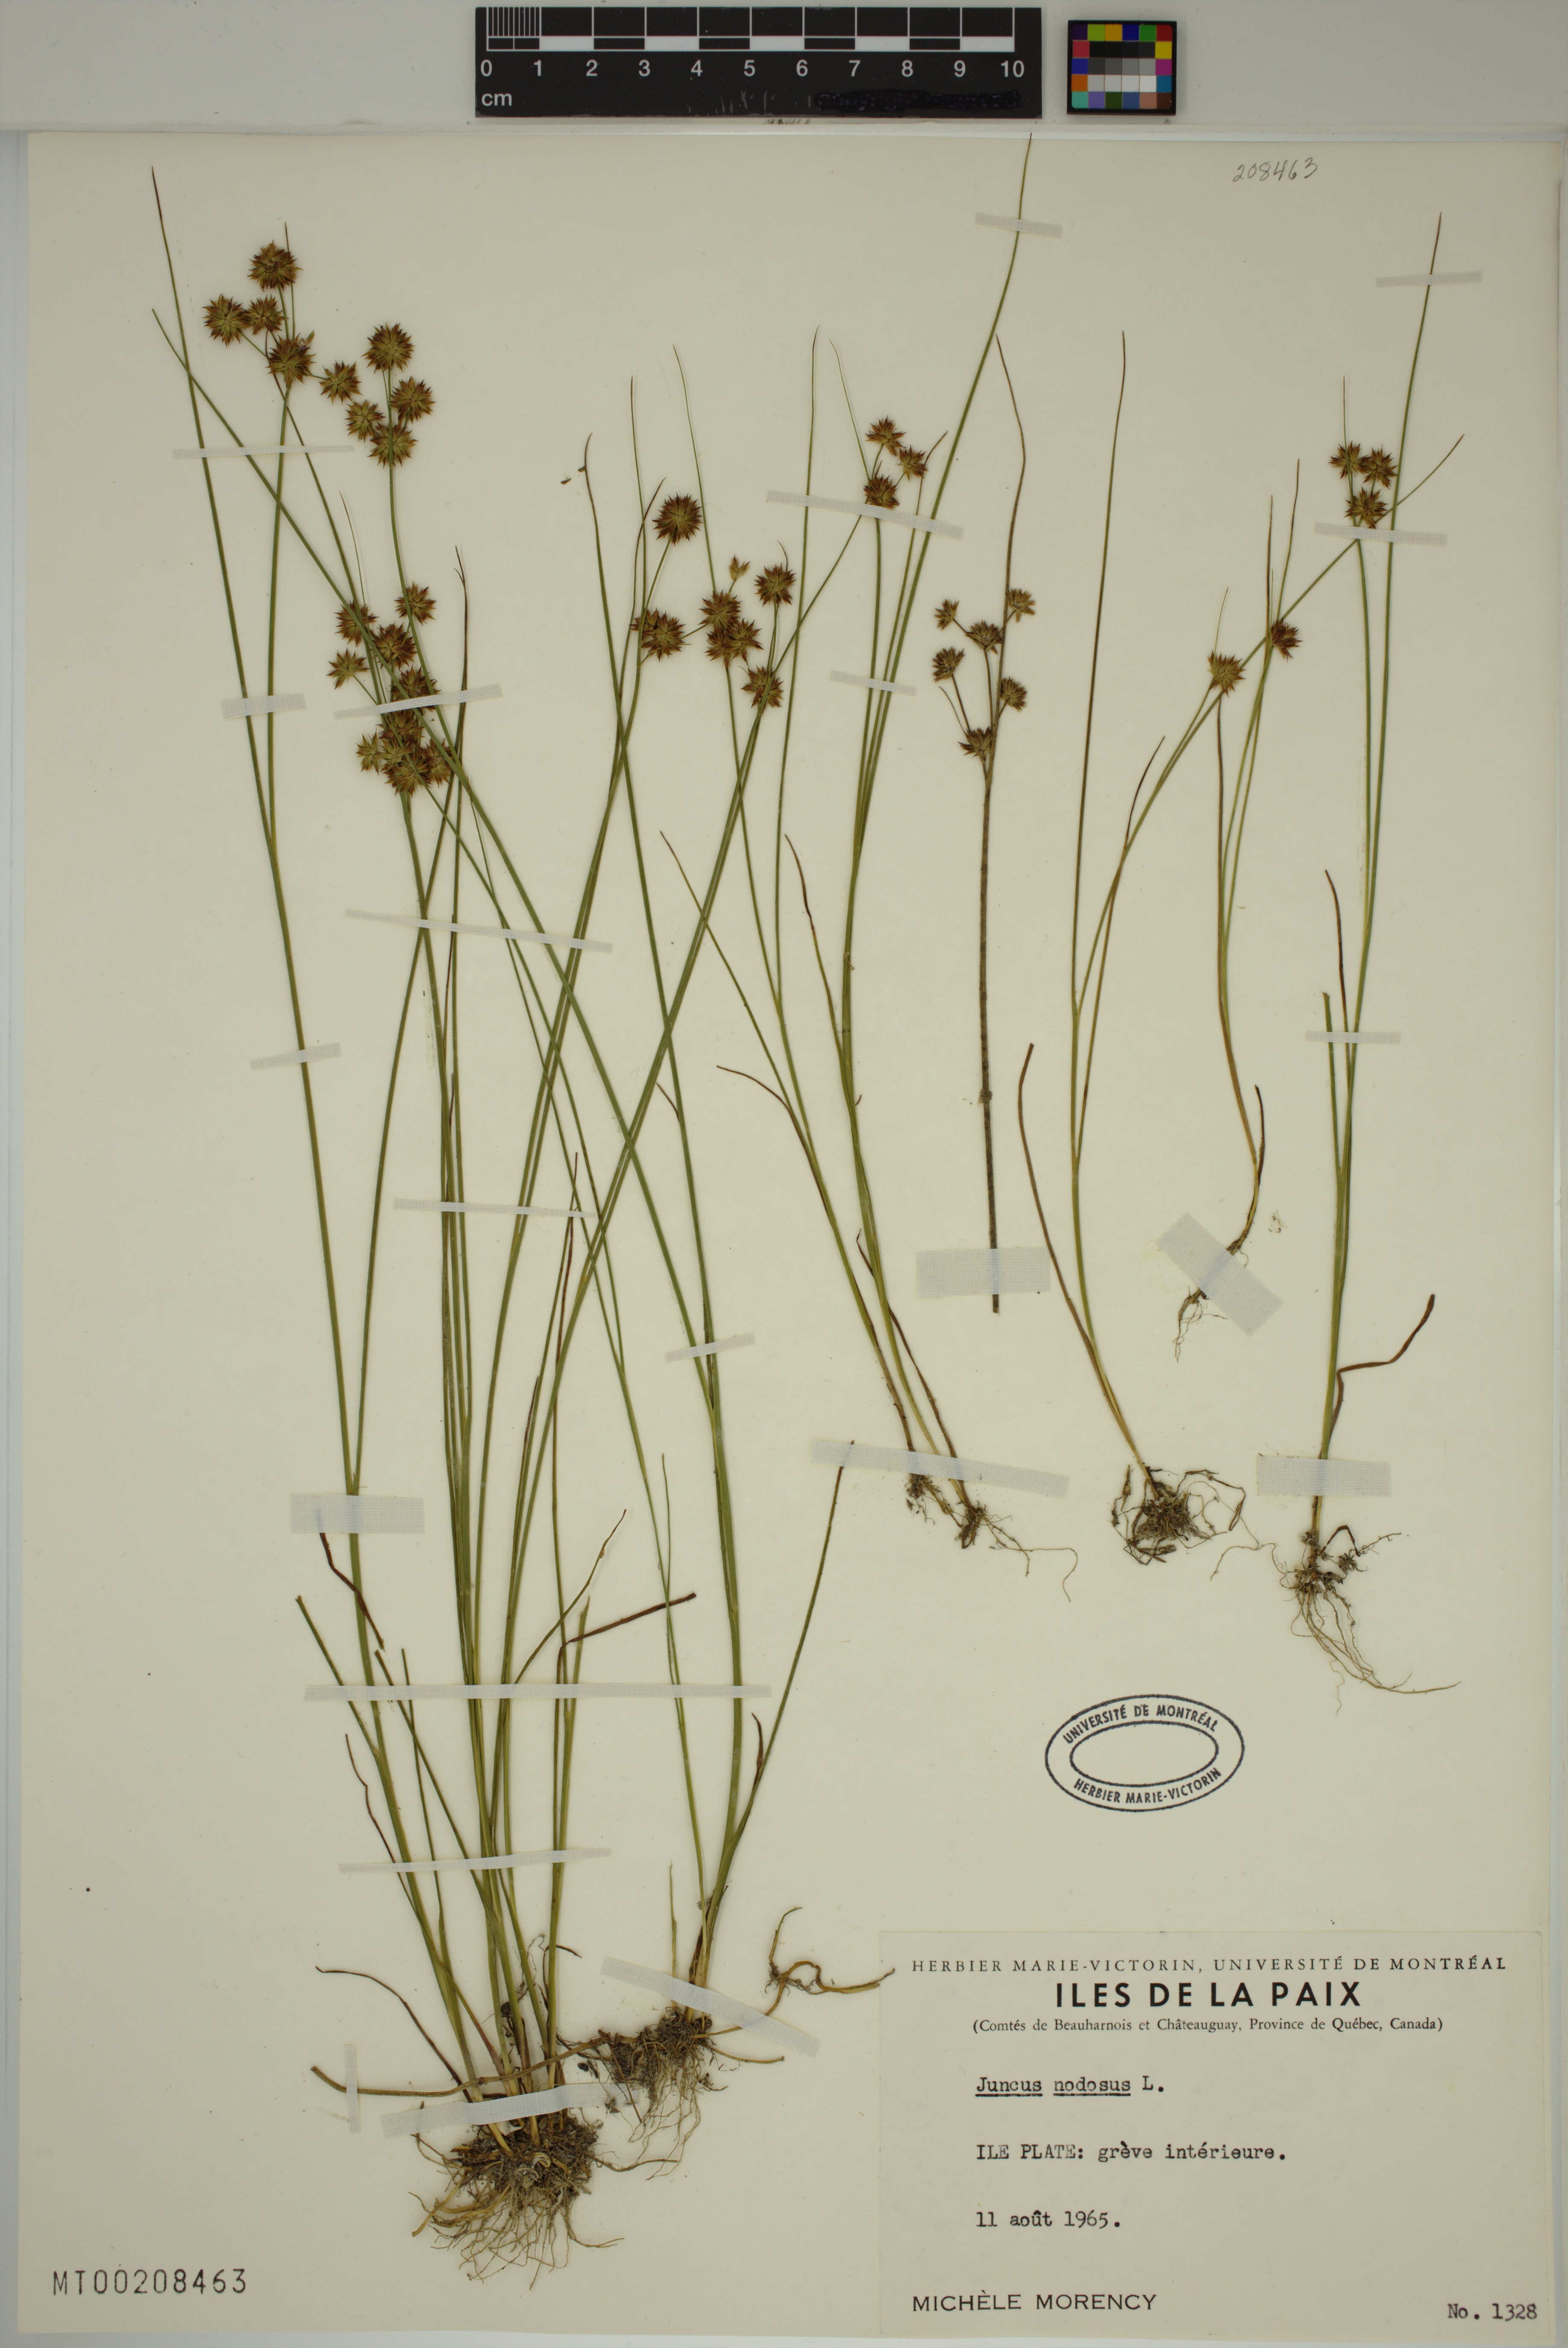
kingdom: Plantae
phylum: Tracheophyta
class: Liliopsida
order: Poales
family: Juncaceae
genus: Juncus
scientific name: Juncus nodosus
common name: Knotted rush
